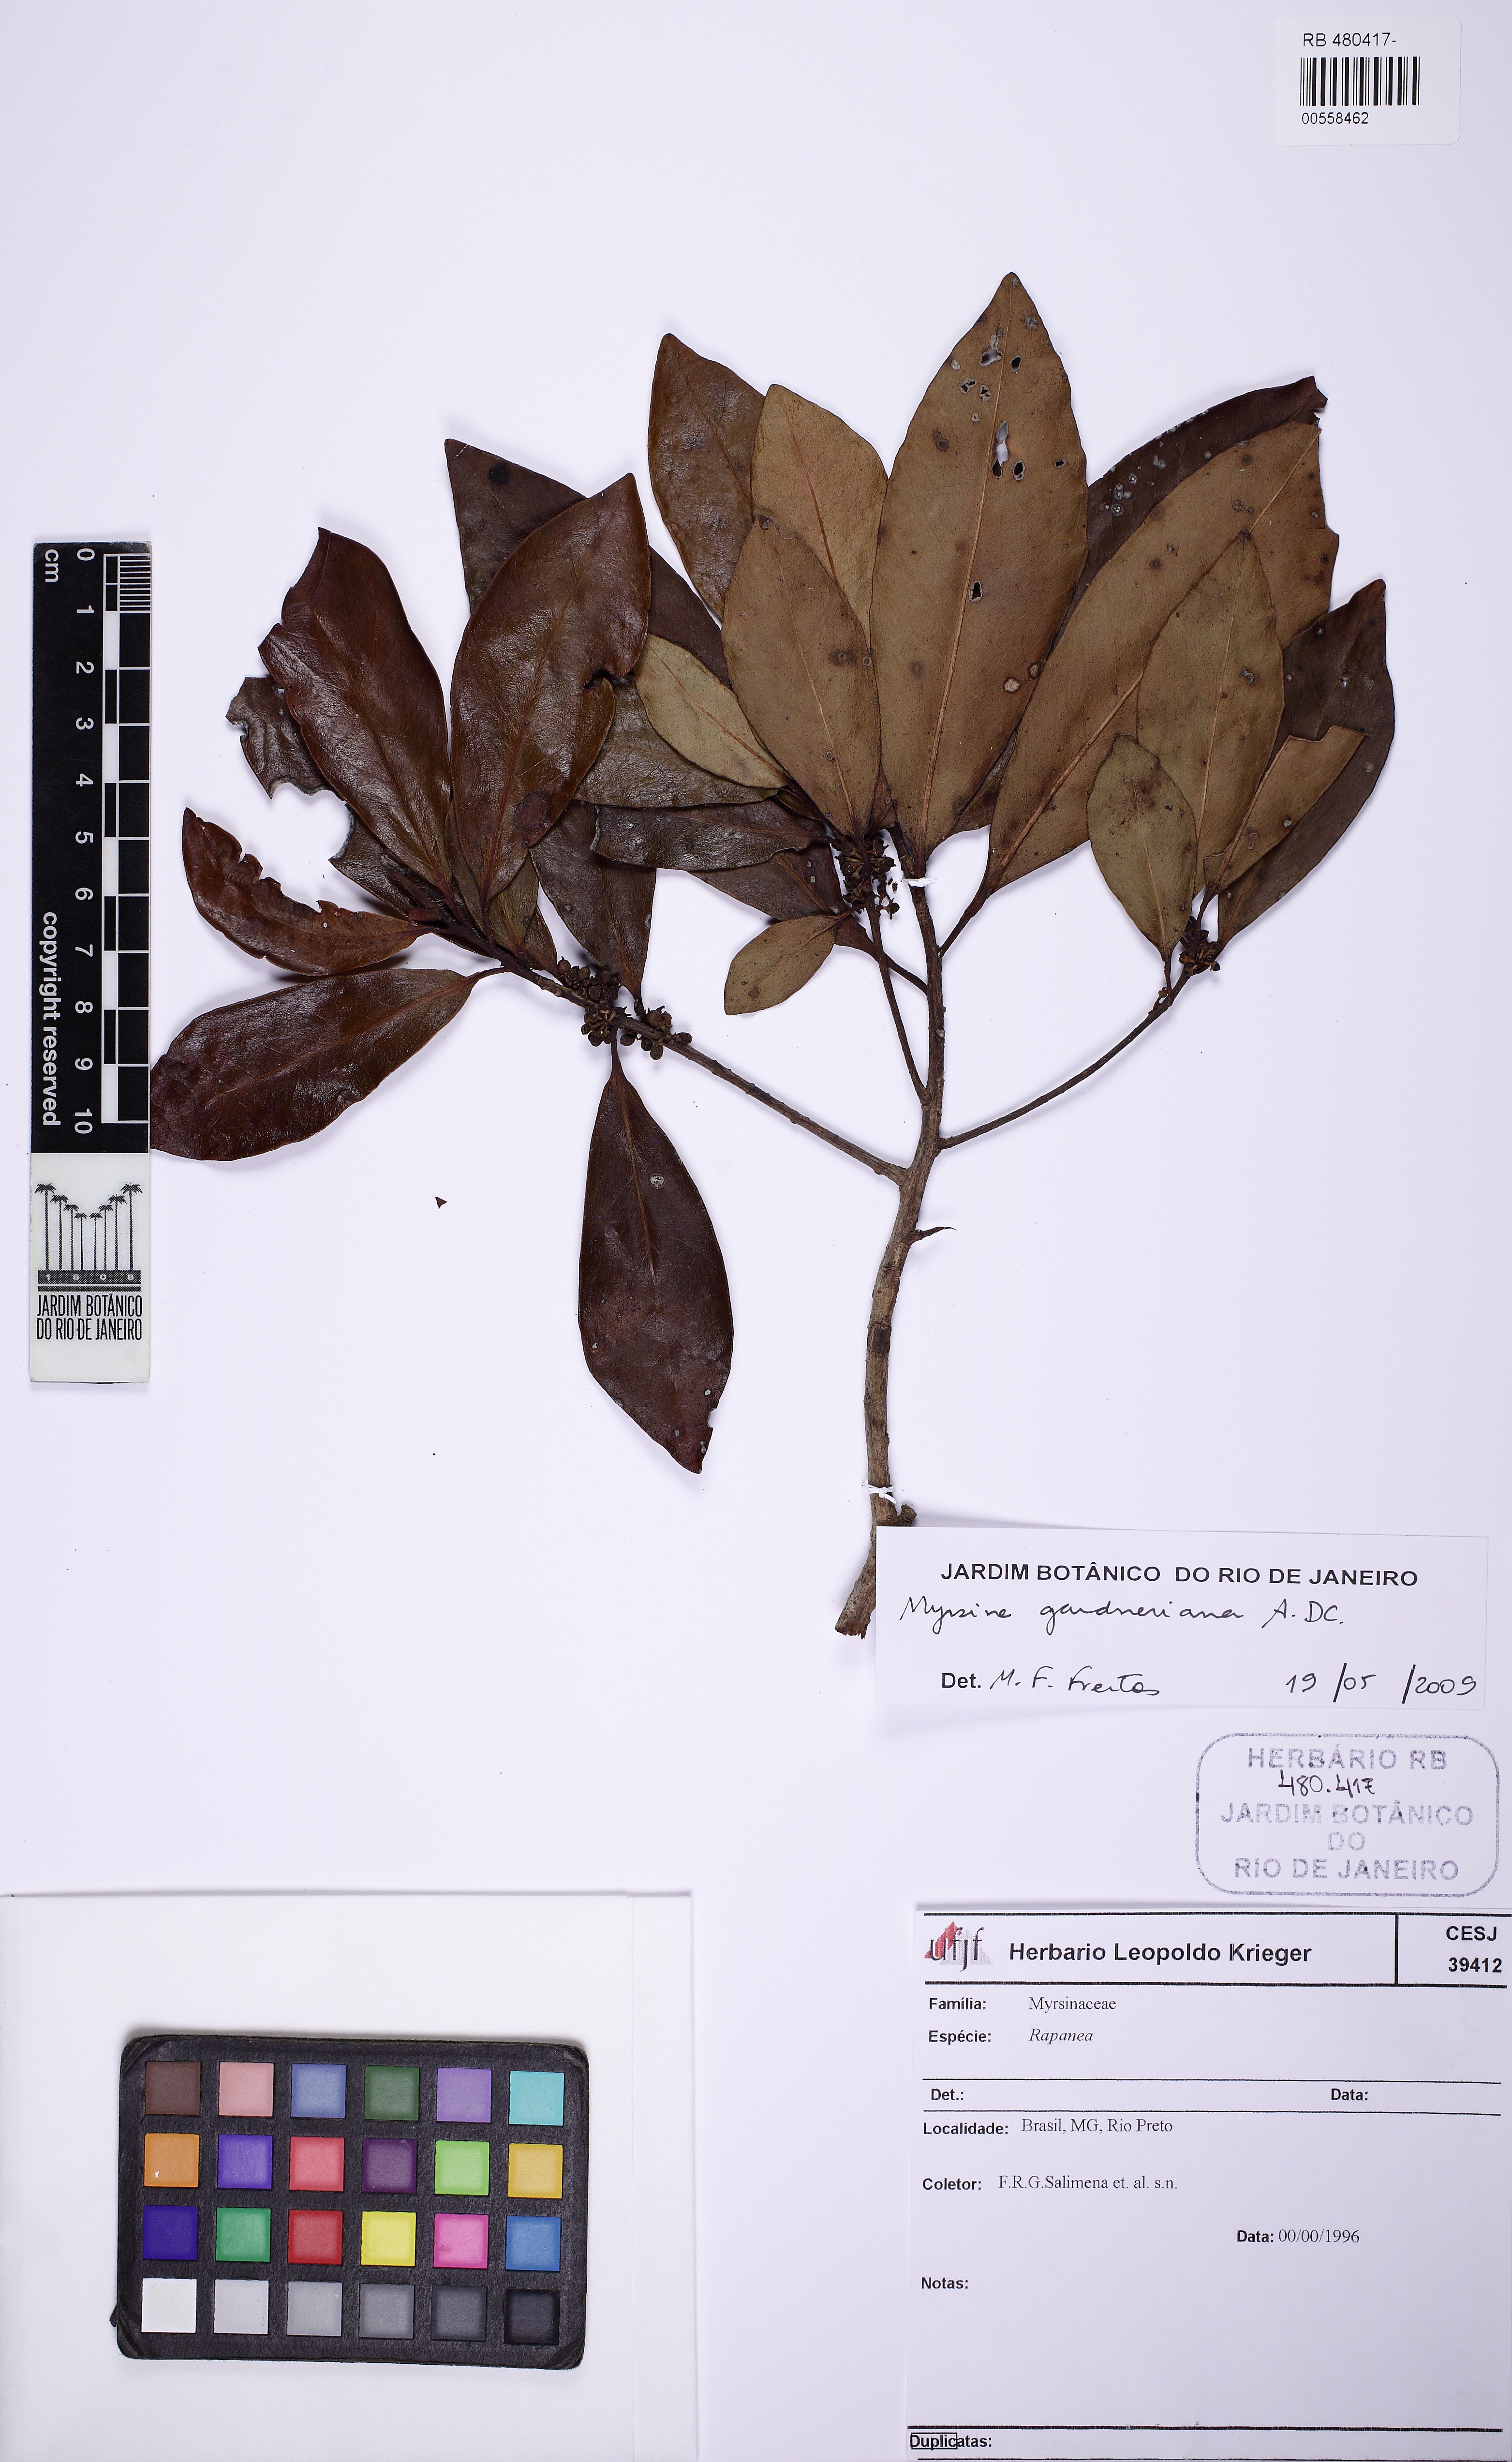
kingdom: Plantae
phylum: Tracheophyta
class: Magnoliopsida
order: Ericales
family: Primulaceae
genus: Myrsine
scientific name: Myrsine gardneriana
